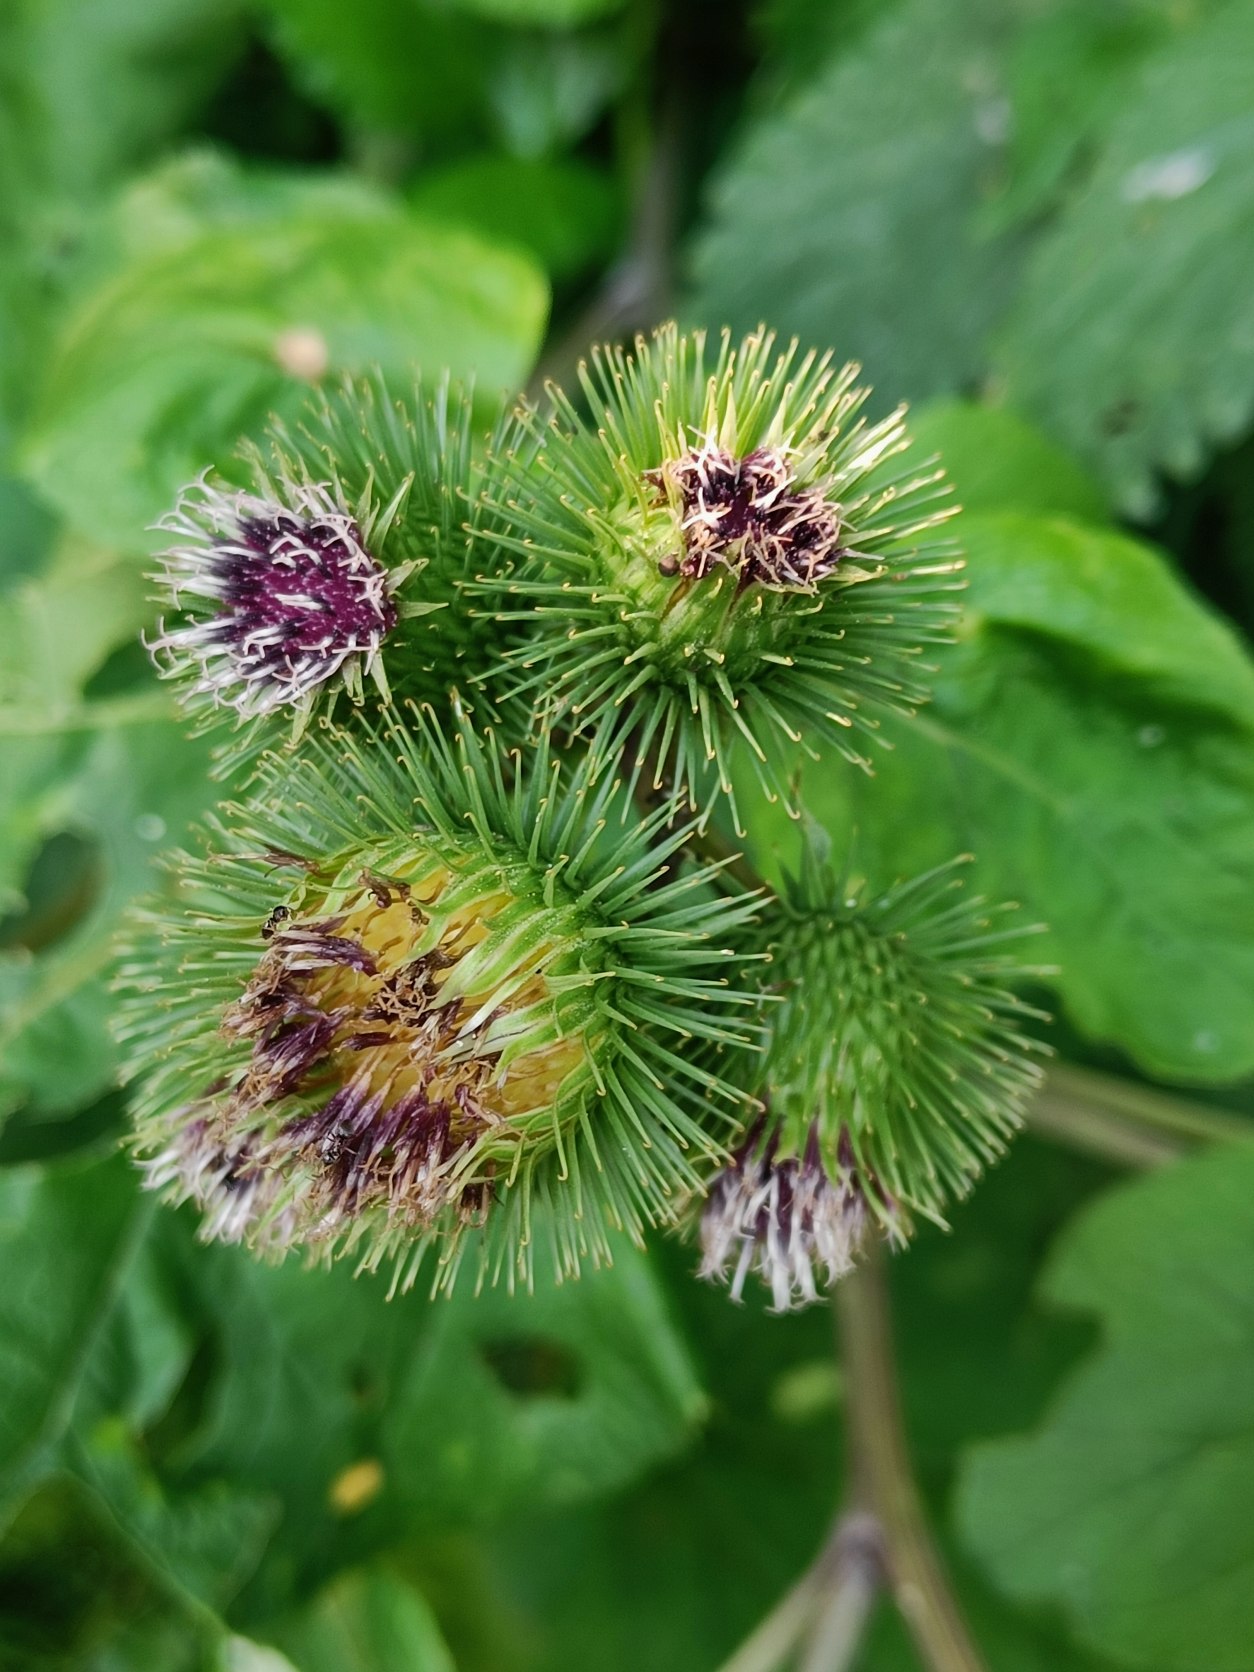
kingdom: Plantae
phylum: Tracheophyta
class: Magnoliopsida
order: Asterales
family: Asteraceae
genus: Arctium
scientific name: Arctium lappa
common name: Glat burre
